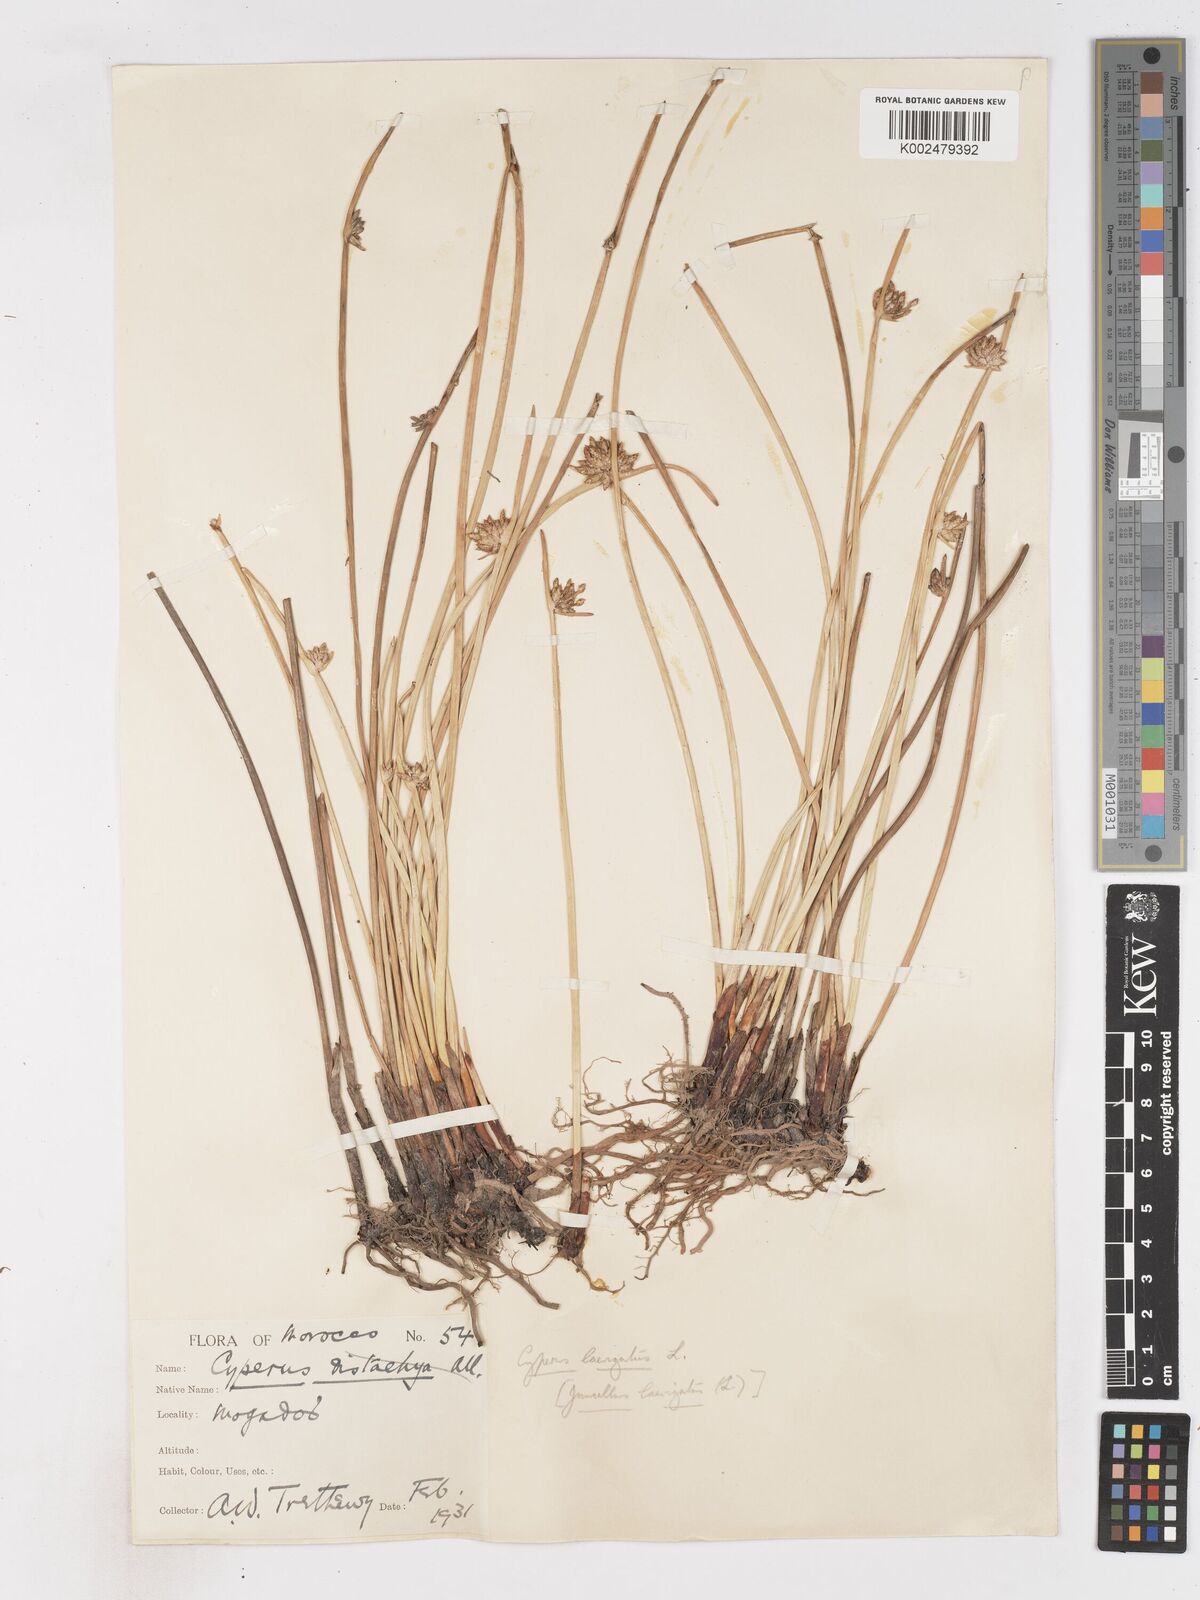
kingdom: Plantae
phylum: Tracheophyta
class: Liliopsida
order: Poales
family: Cyperaceae
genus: Cyperus
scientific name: Cyperus laevigatus
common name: Smooth flat sedge
